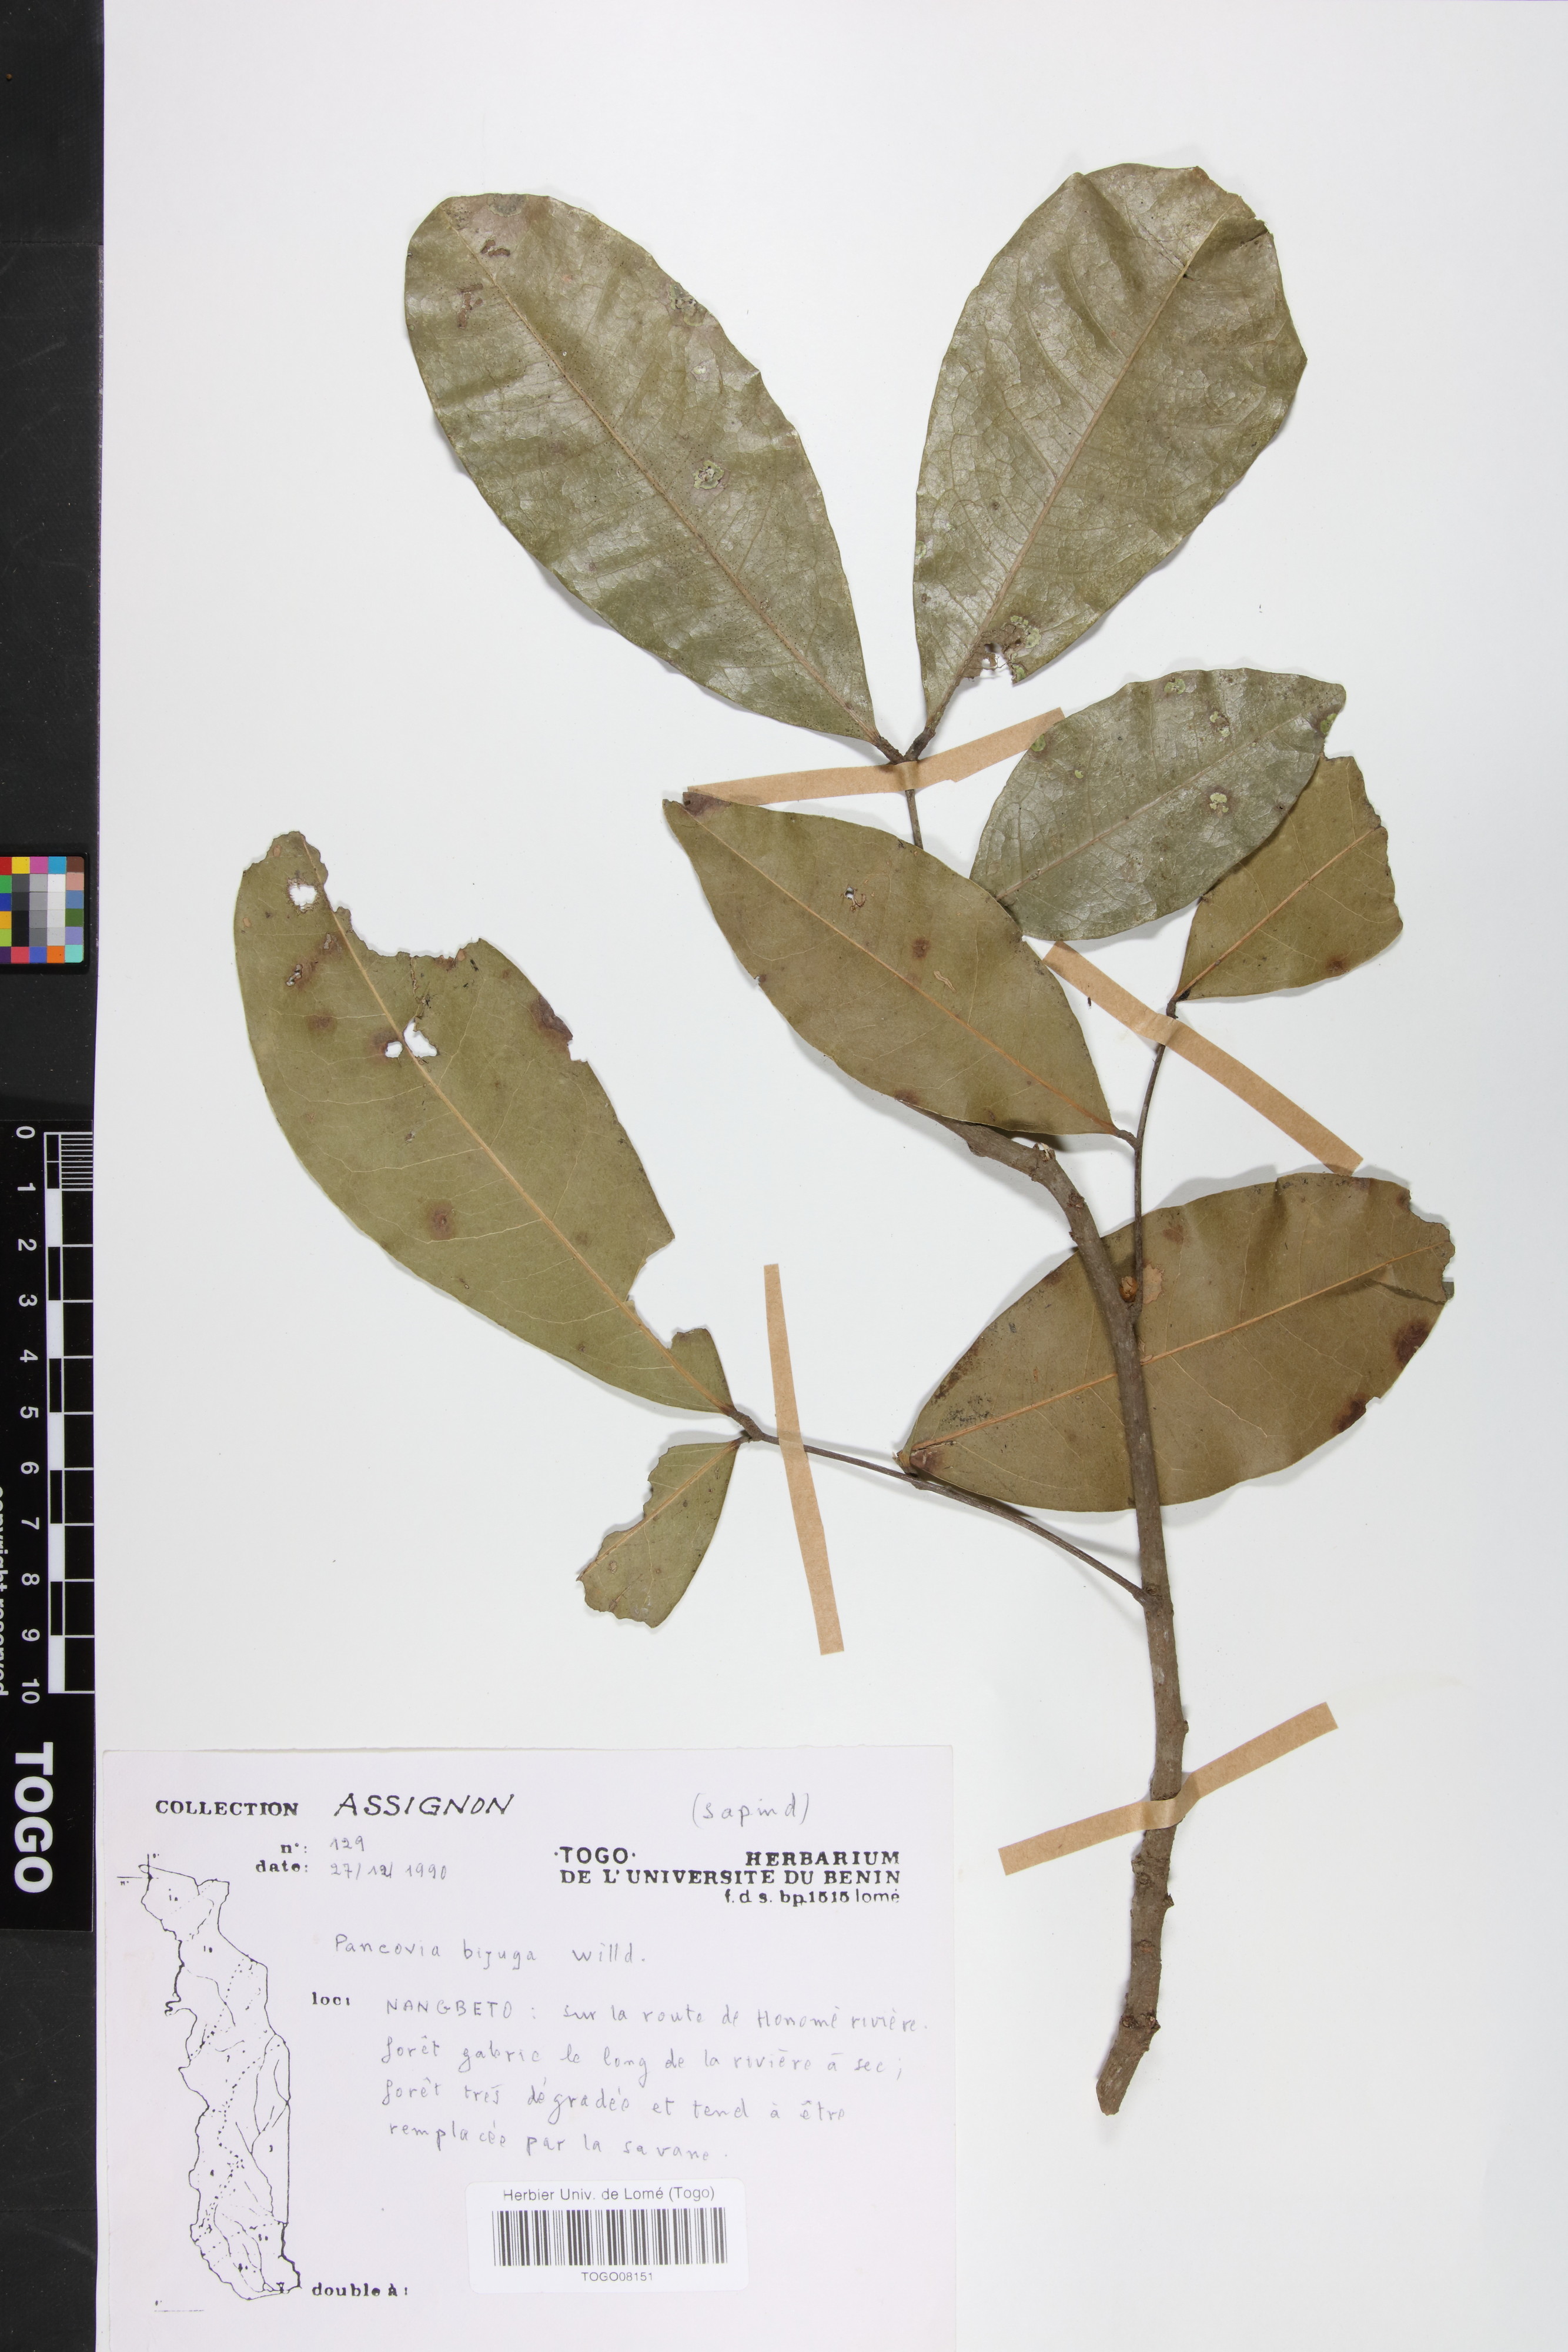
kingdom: Plantae
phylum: Tracheophyta
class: Magnoliopsida
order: Sapindales
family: Sapindaceae
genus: Pancovia
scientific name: Pancovia bijuga
